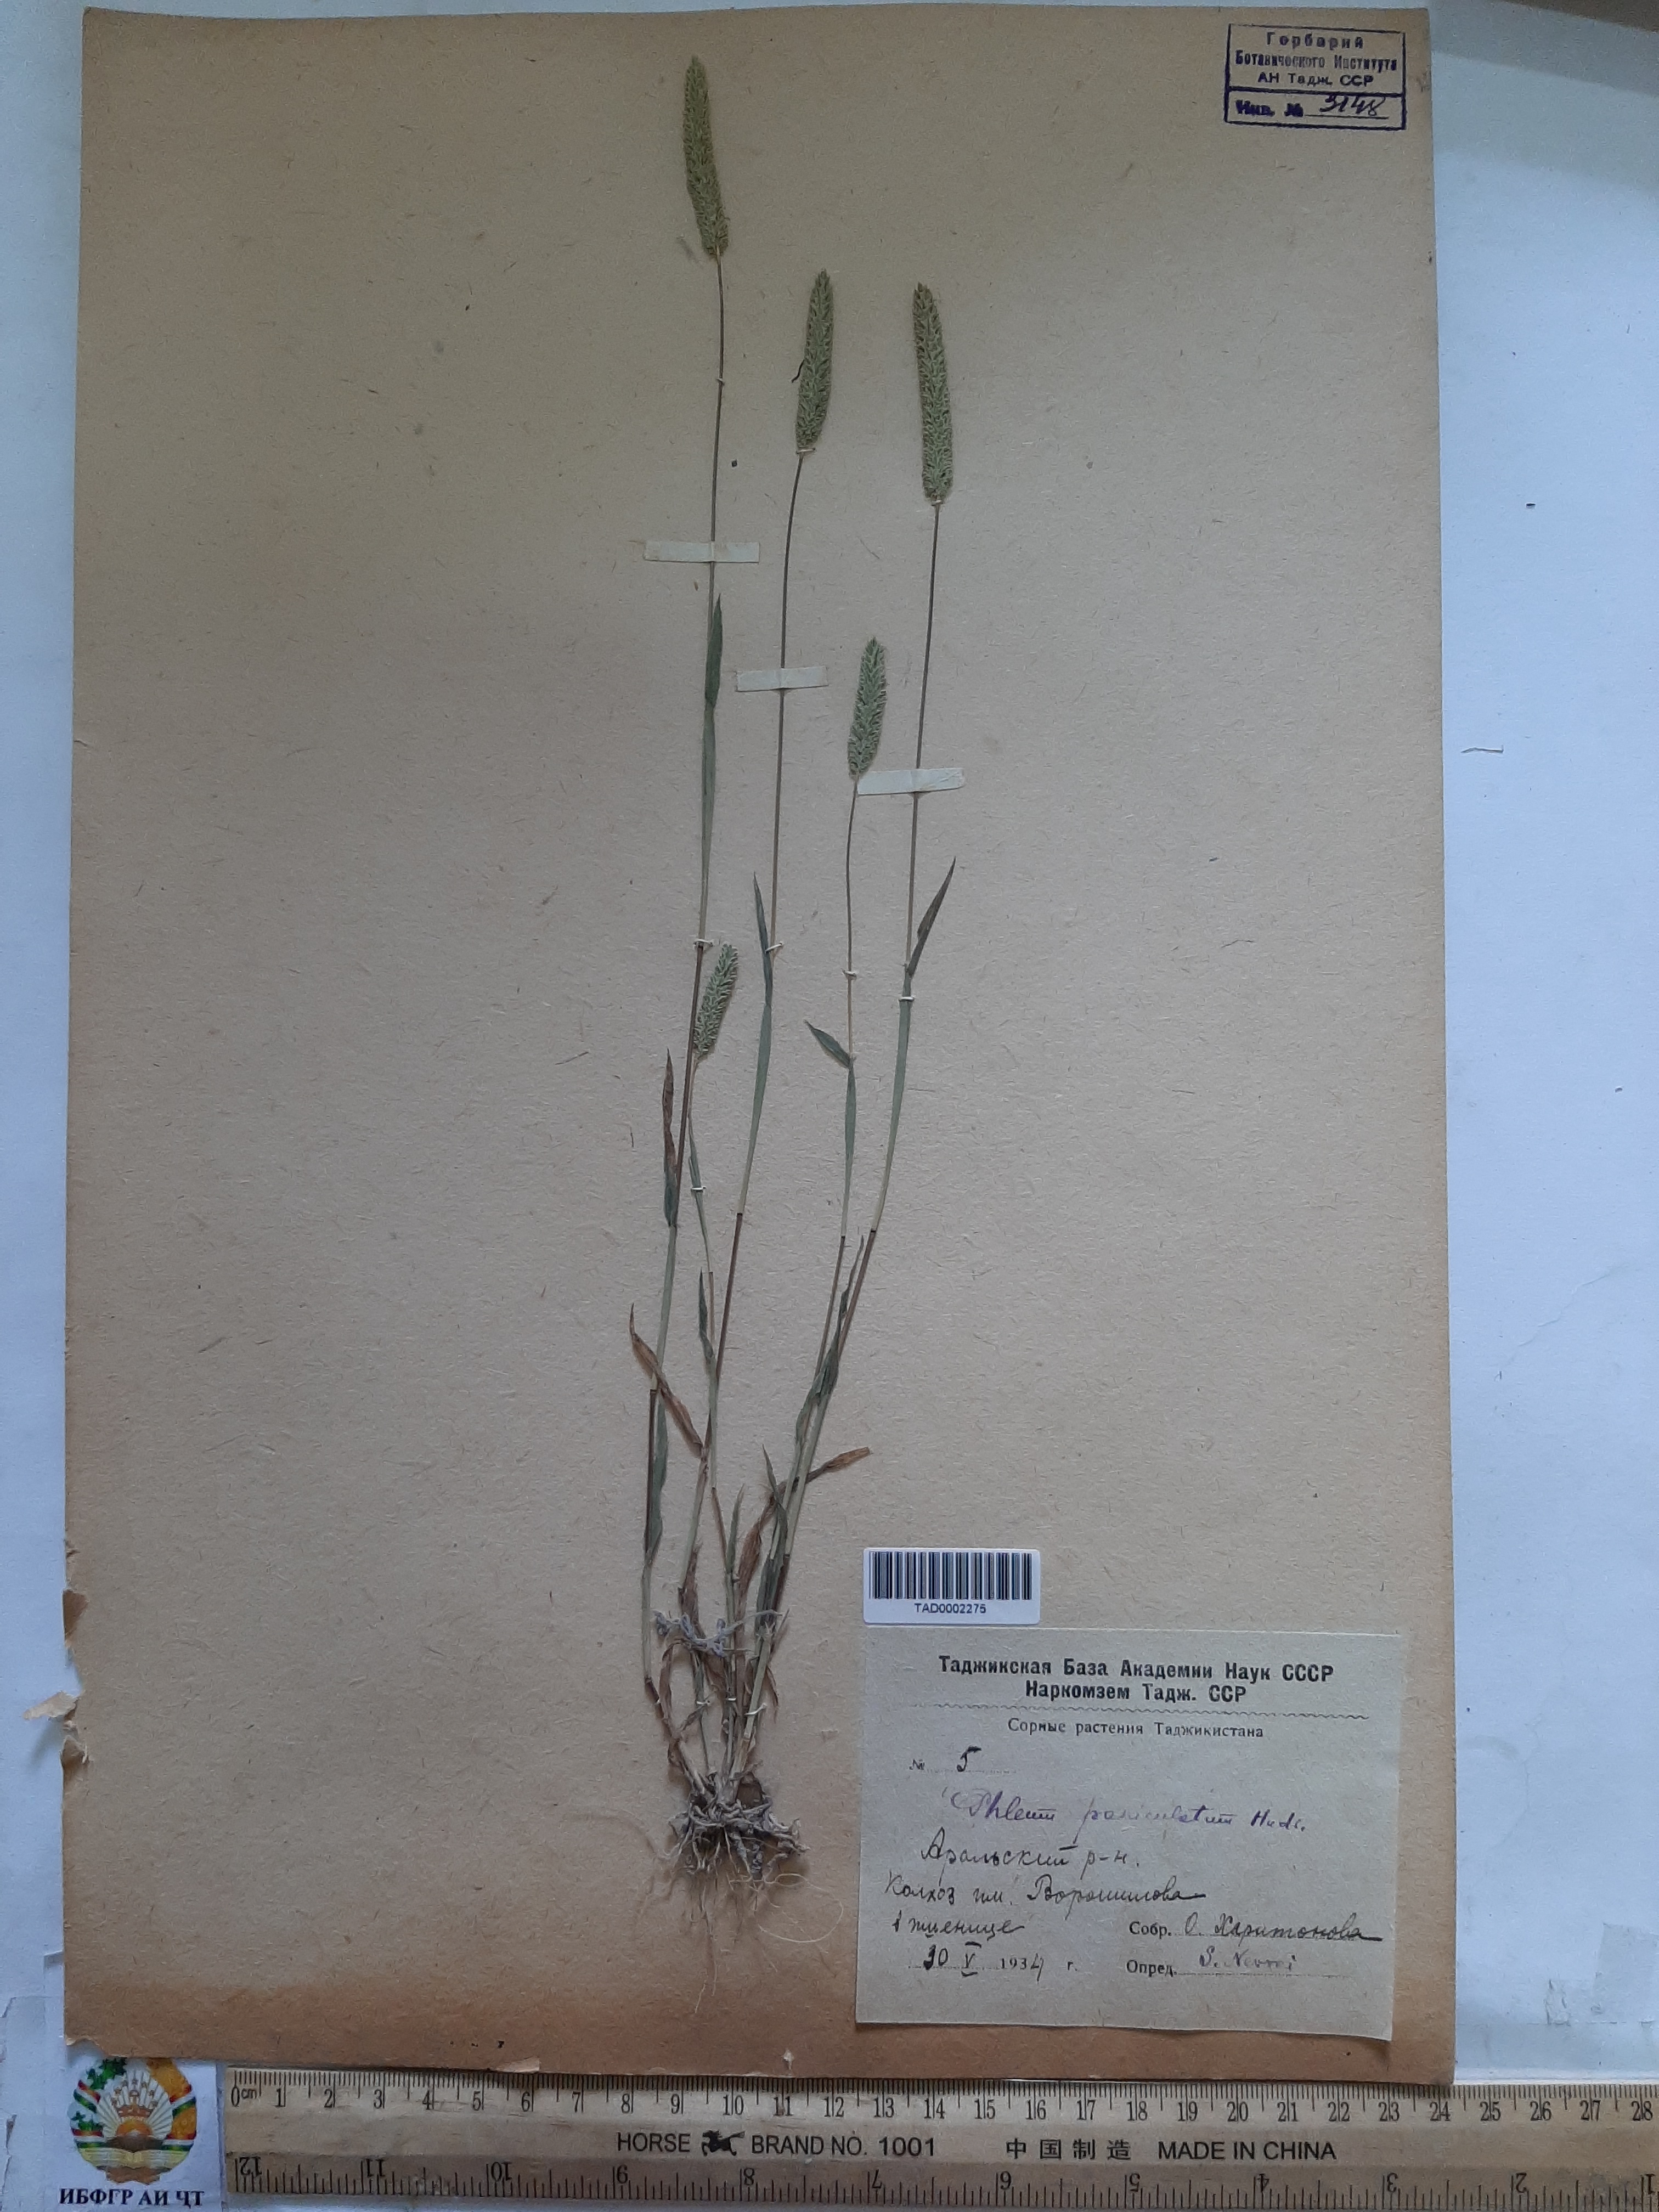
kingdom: Plantae
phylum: Tracheophyta
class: Liliopsida
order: Poales
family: Poaceae
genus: Phleum
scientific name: Phleum paniculatum
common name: British timothy
